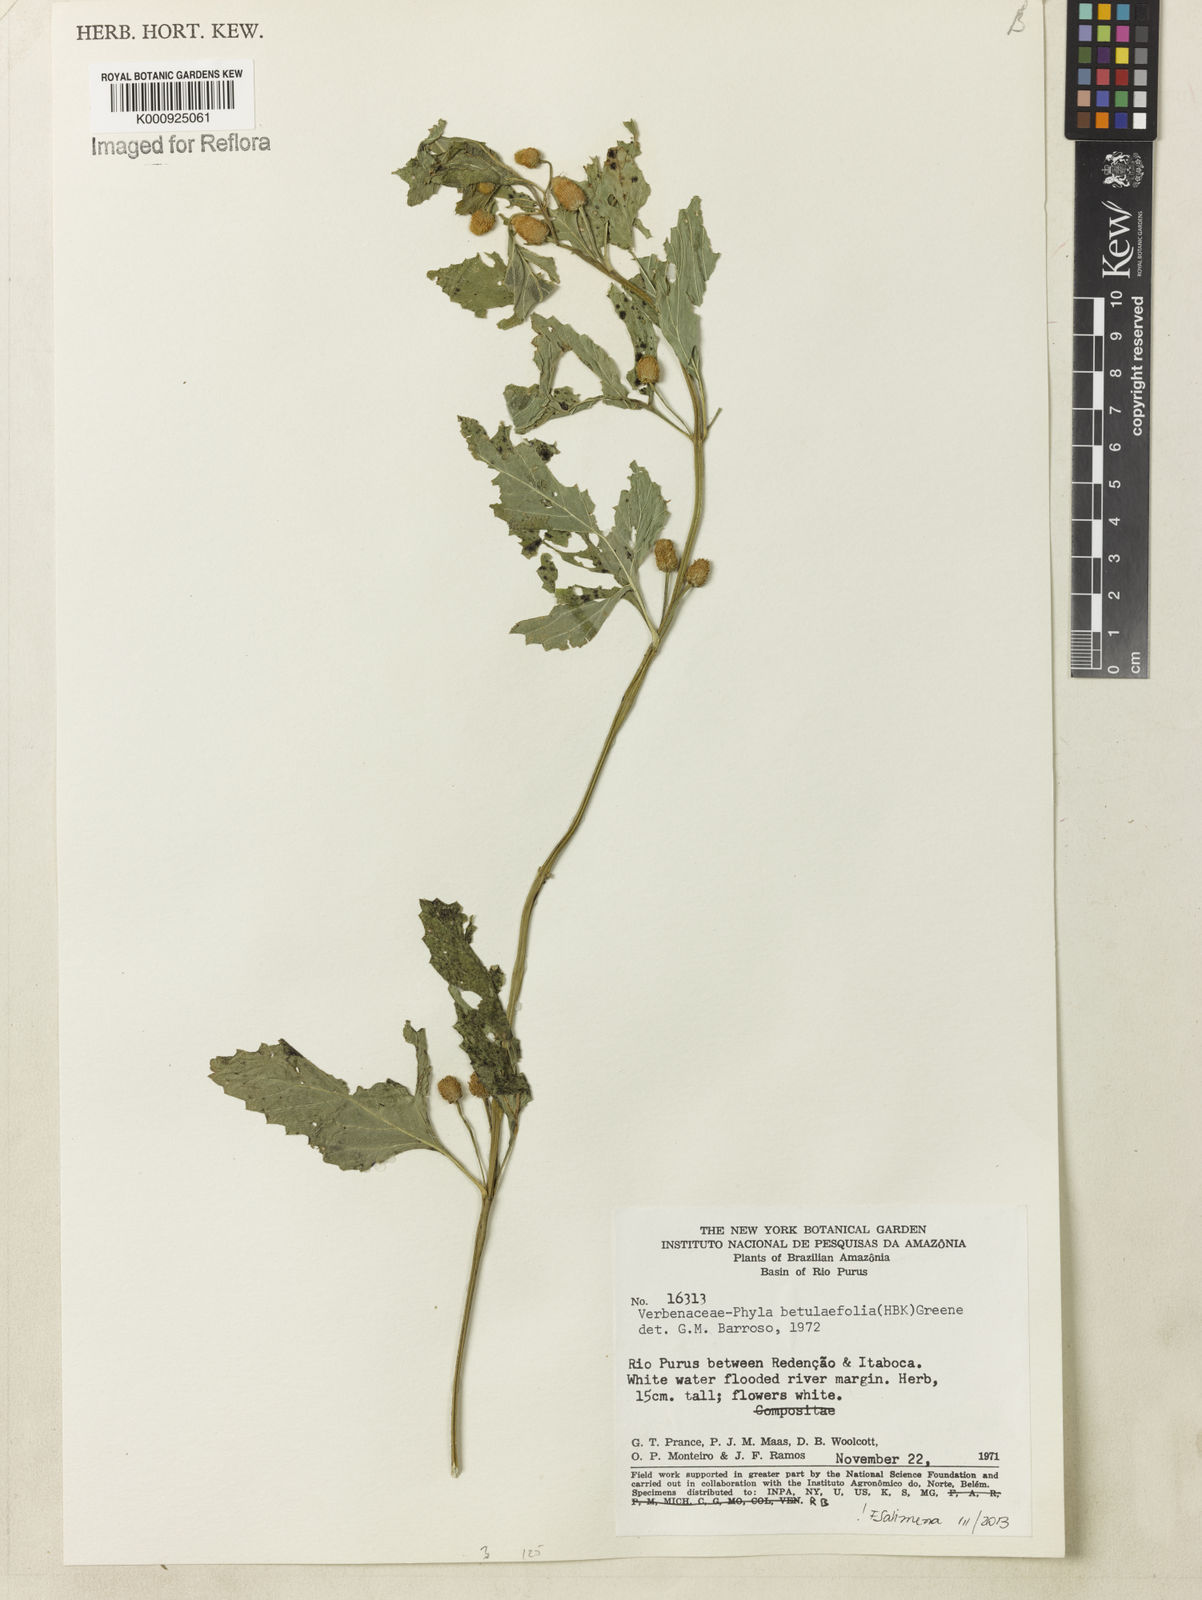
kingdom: Plantae
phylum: Tracheophyta
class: Magnoliopsida
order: Lamiales
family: Verbenaceae
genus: Phyla
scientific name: Phyla betulifolia
